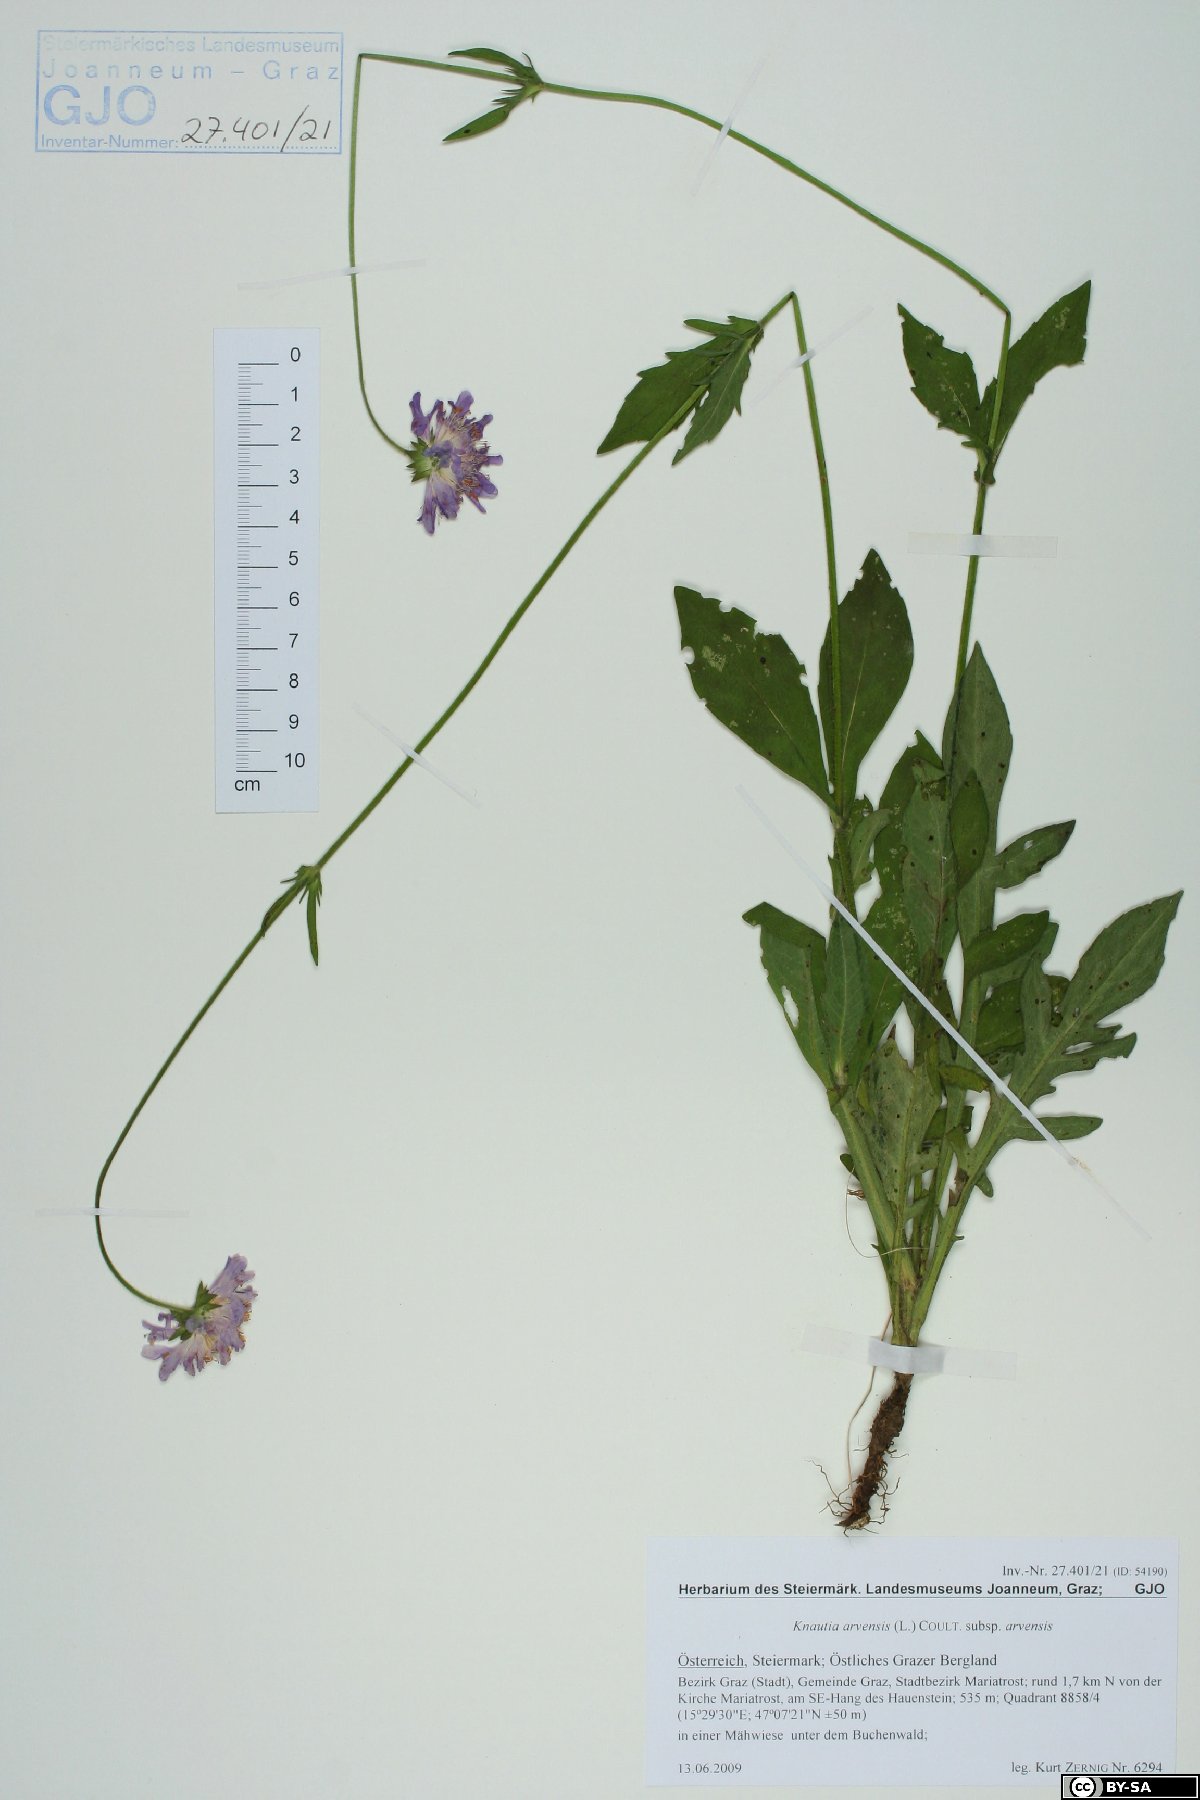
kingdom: Plantae
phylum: Tracheophyta
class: Magnoliopsida
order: Dipsacales
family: Caprifoliaceae
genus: Knautia
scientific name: Knautia arvensis
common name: Field scabiosa
